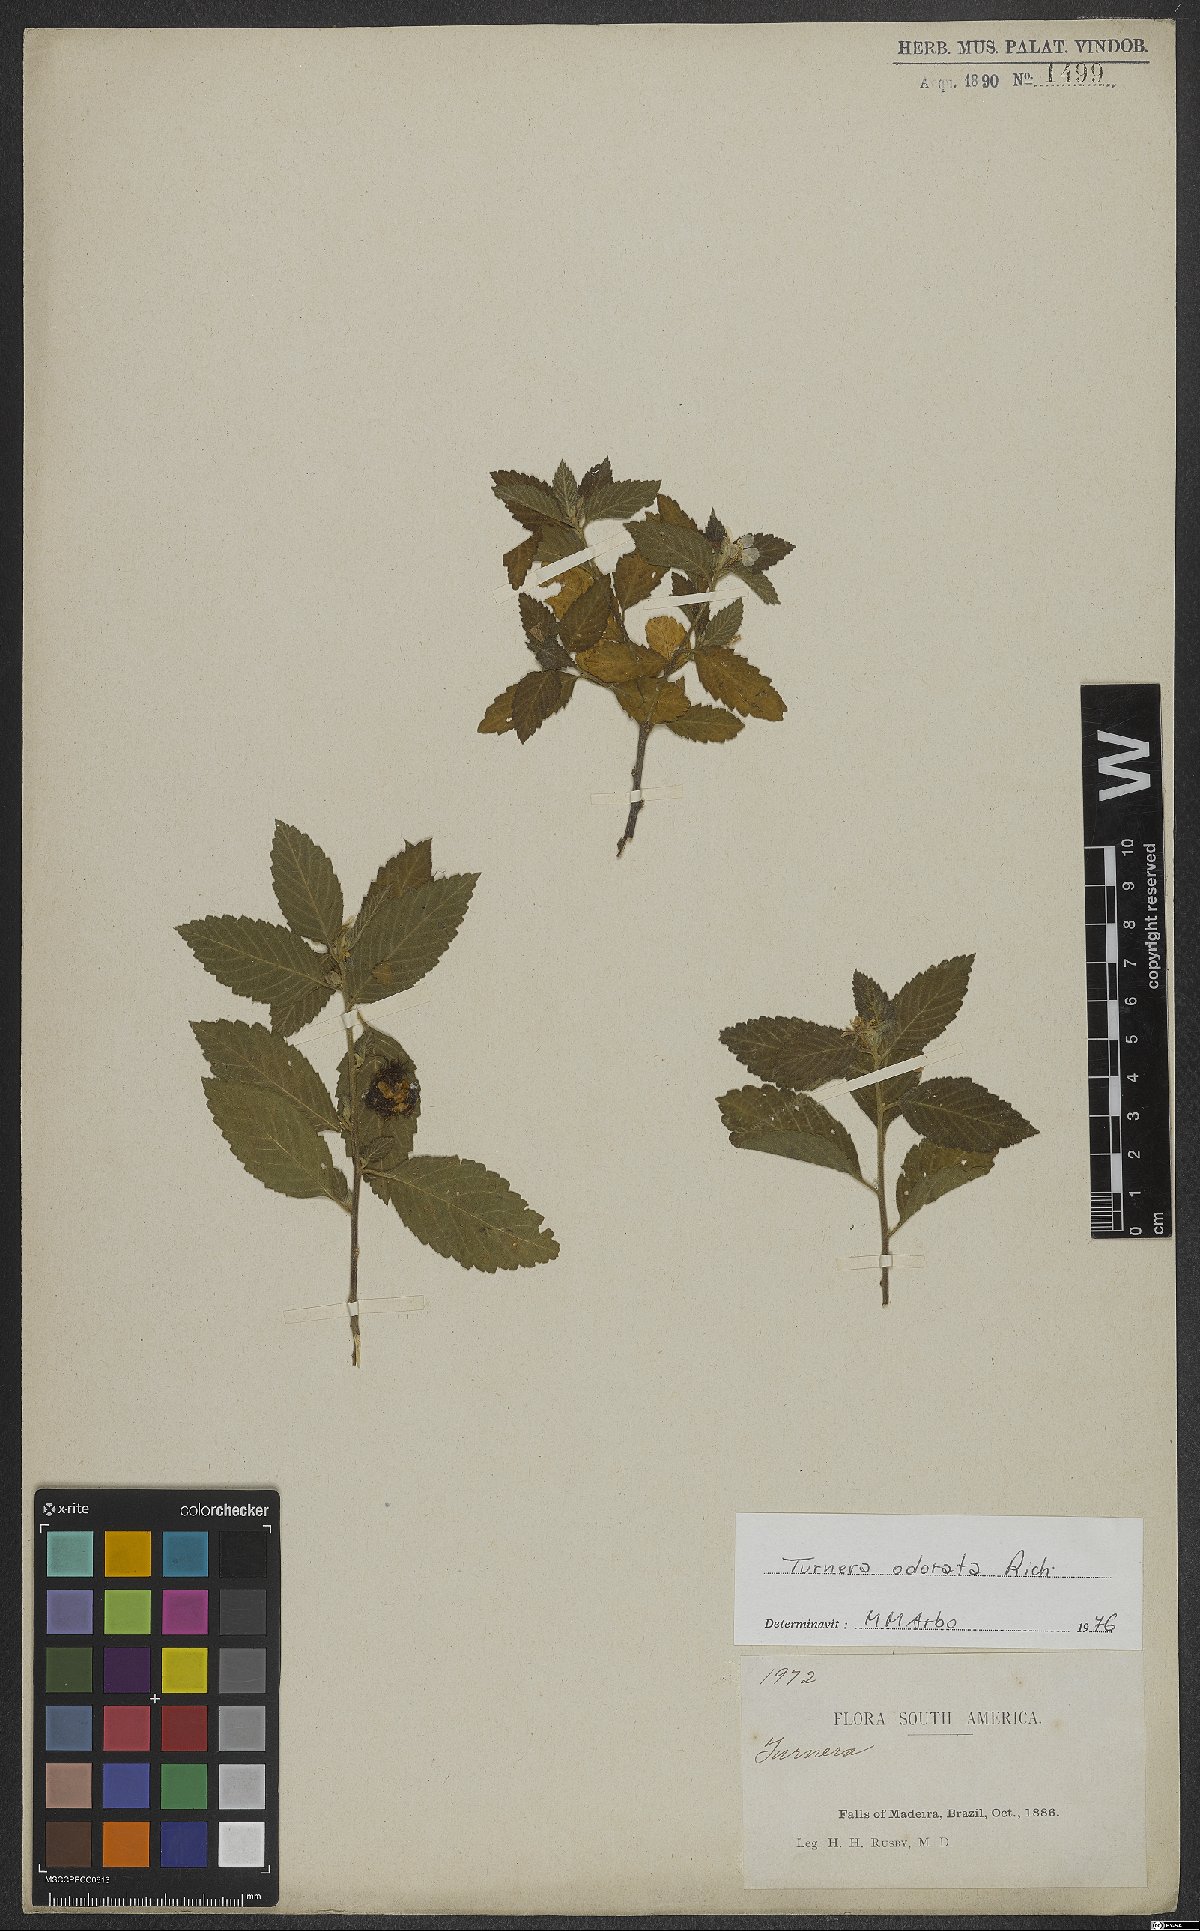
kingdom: Plantae
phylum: Tracheophyta
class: Magnoliopsida
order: Malpighiales
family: Turneraceae
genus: Turnera
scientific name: Turnera odorata
